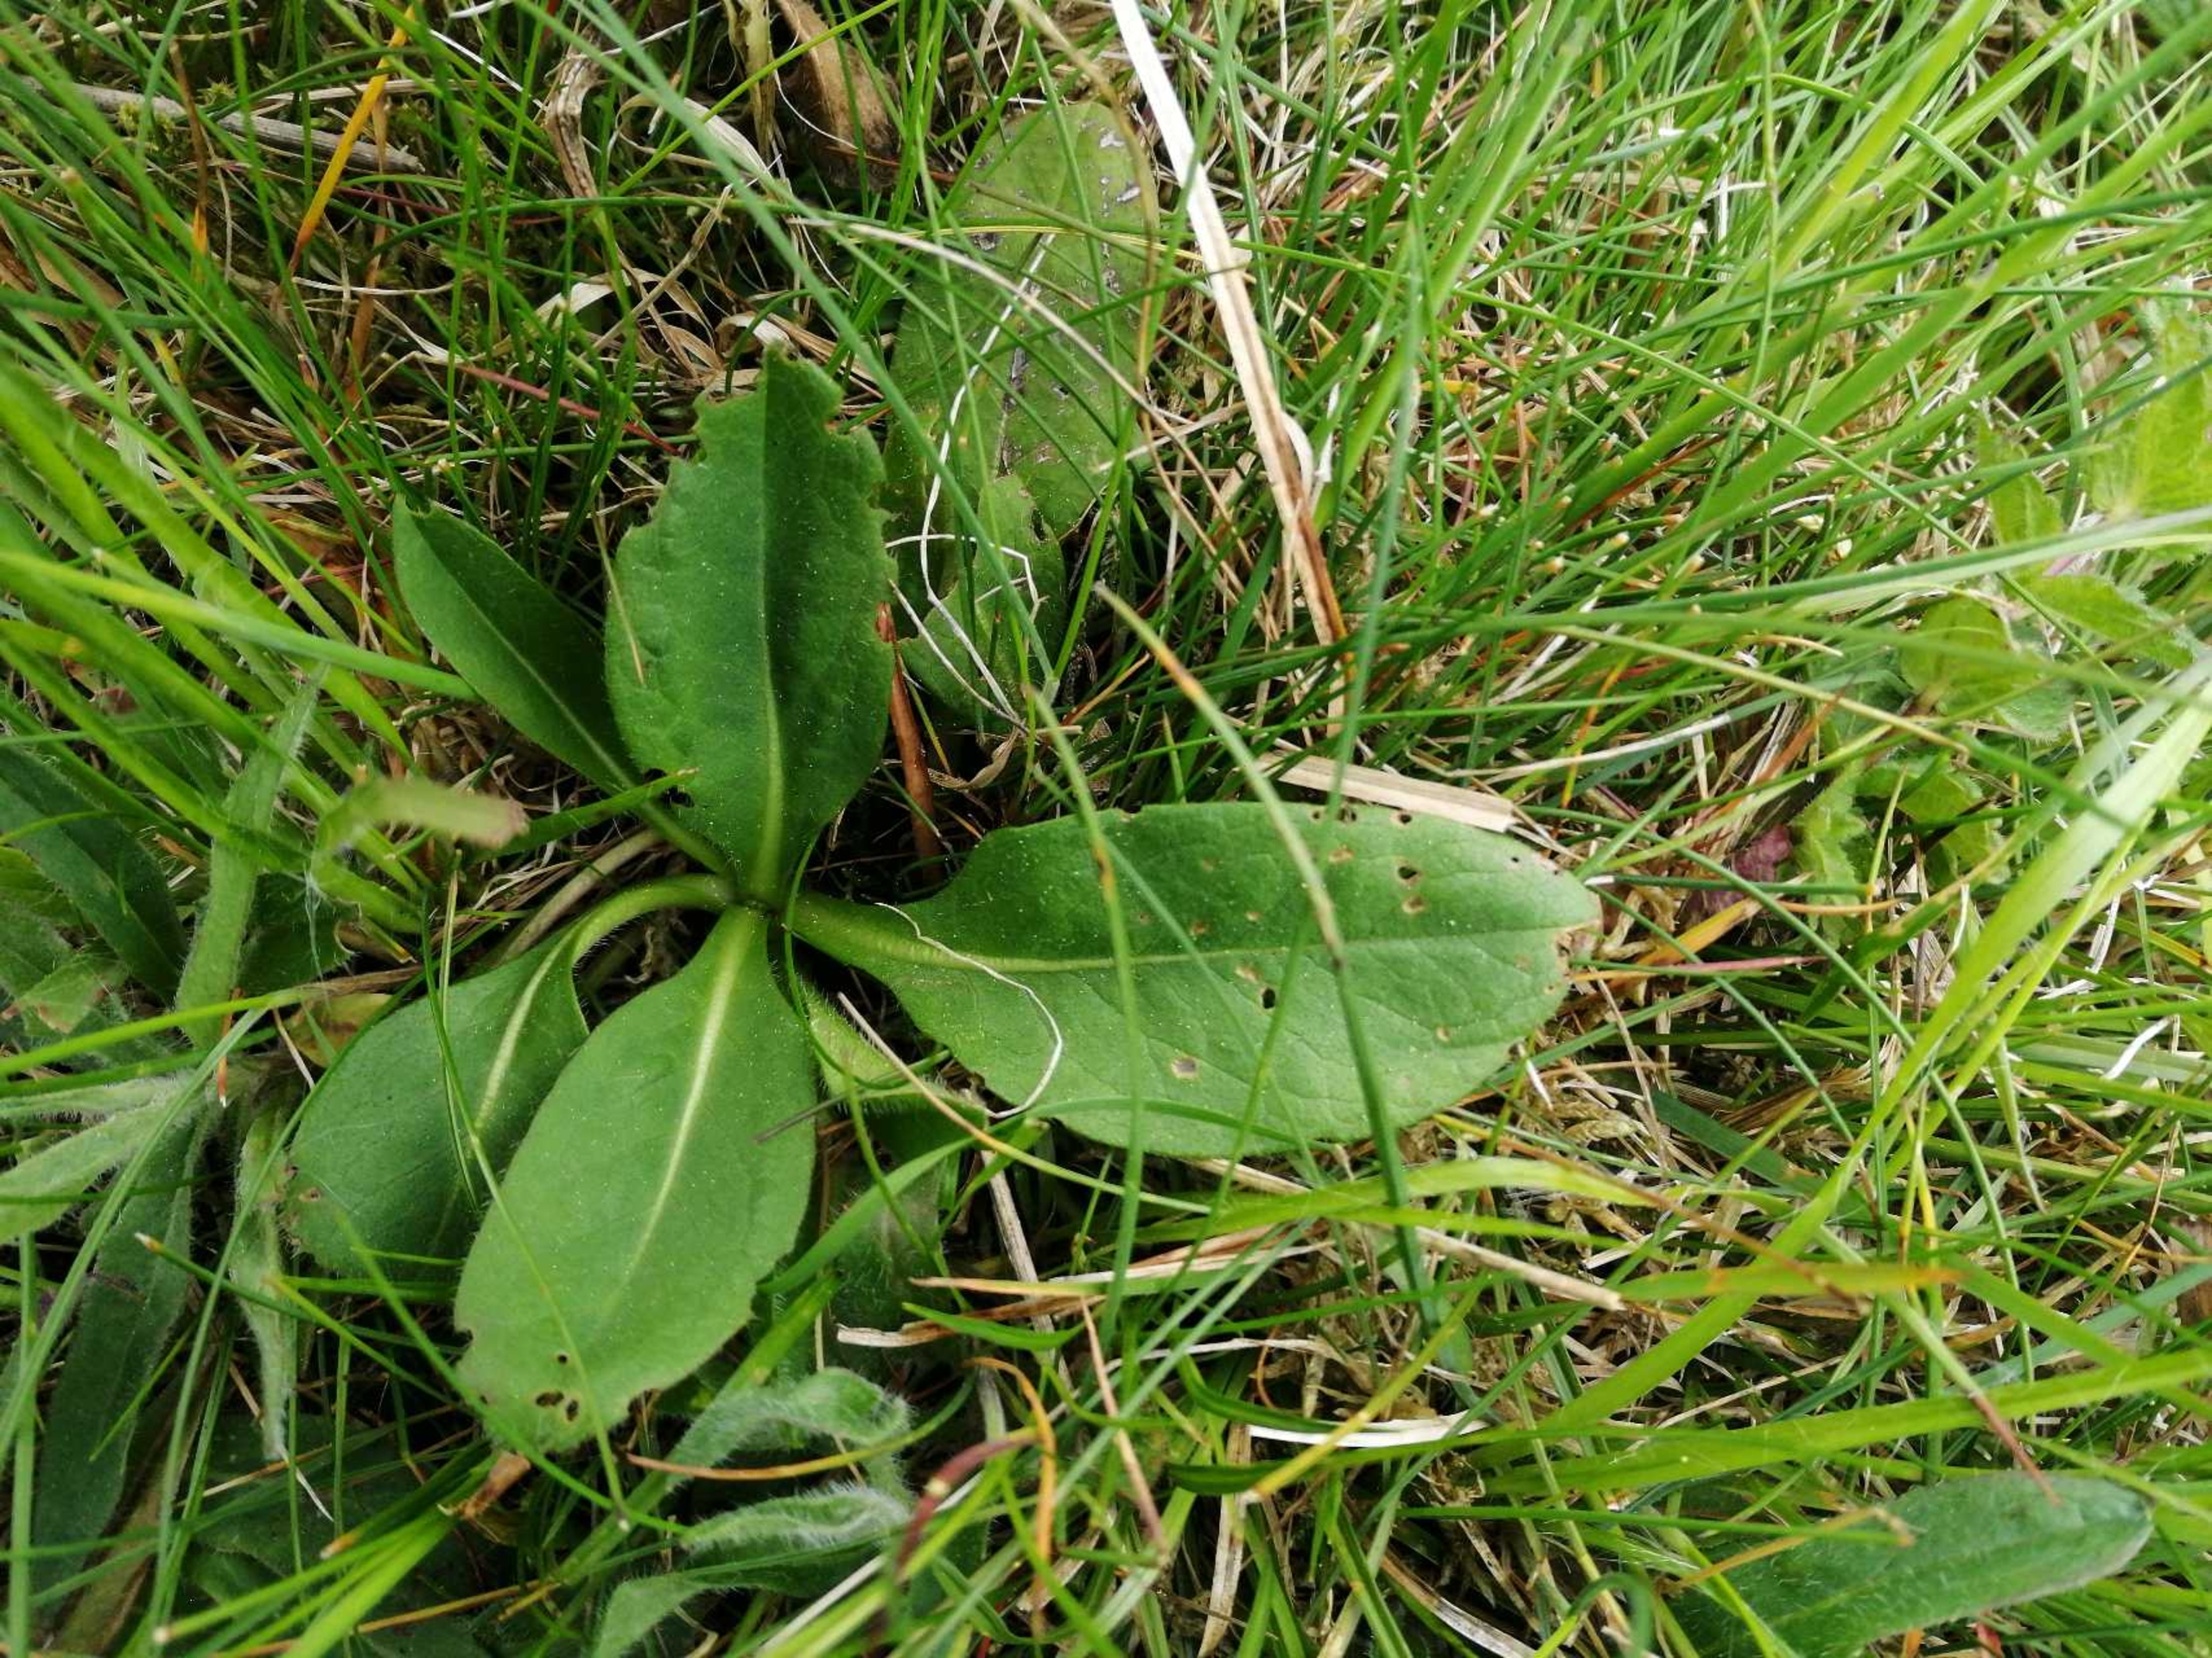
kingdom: Plantae
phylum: Tracheophyta
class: Magnoliopsida
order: Dipsacales
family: Caprifoliaceae
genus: Succisa
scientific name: Succisa pratensis
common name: Djævelsbid
